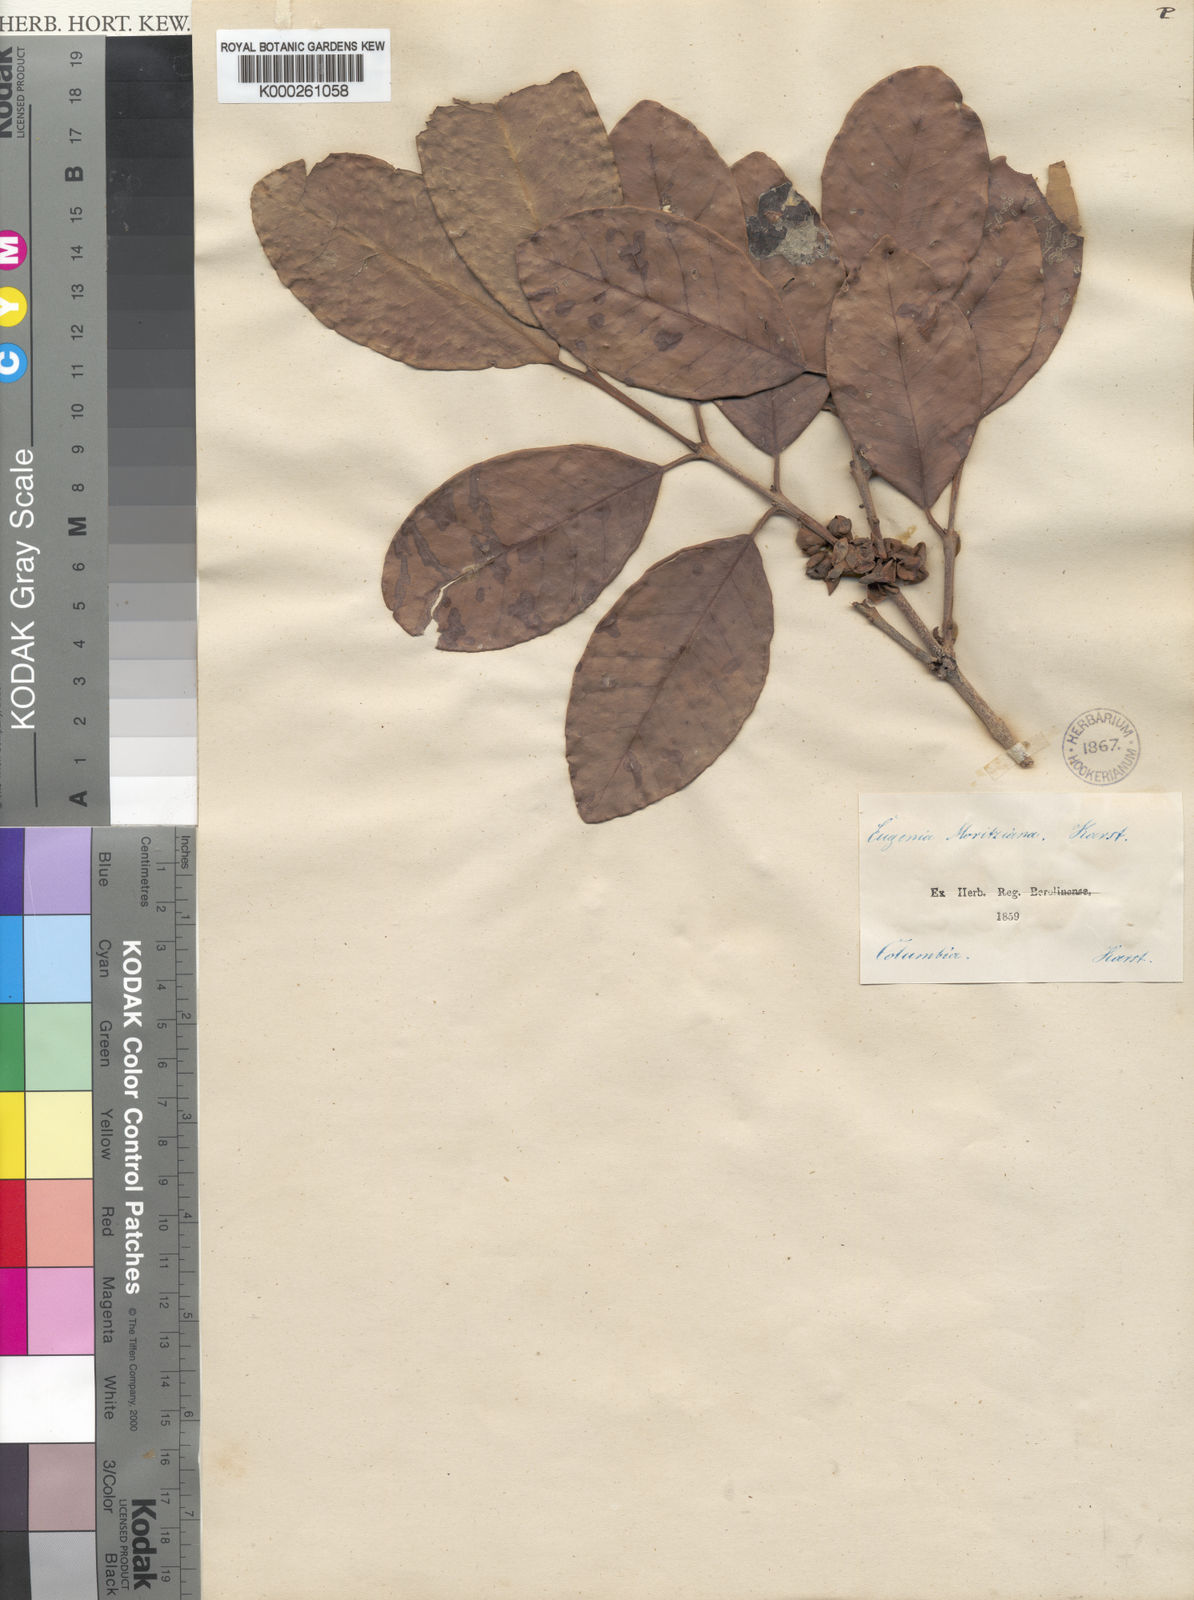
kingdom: Plantae
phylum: Tracheophyta
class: Magnoliopsida
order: Myrtales
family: Myrtaceae
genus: Eugenia
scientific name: Eugenia moritziana
